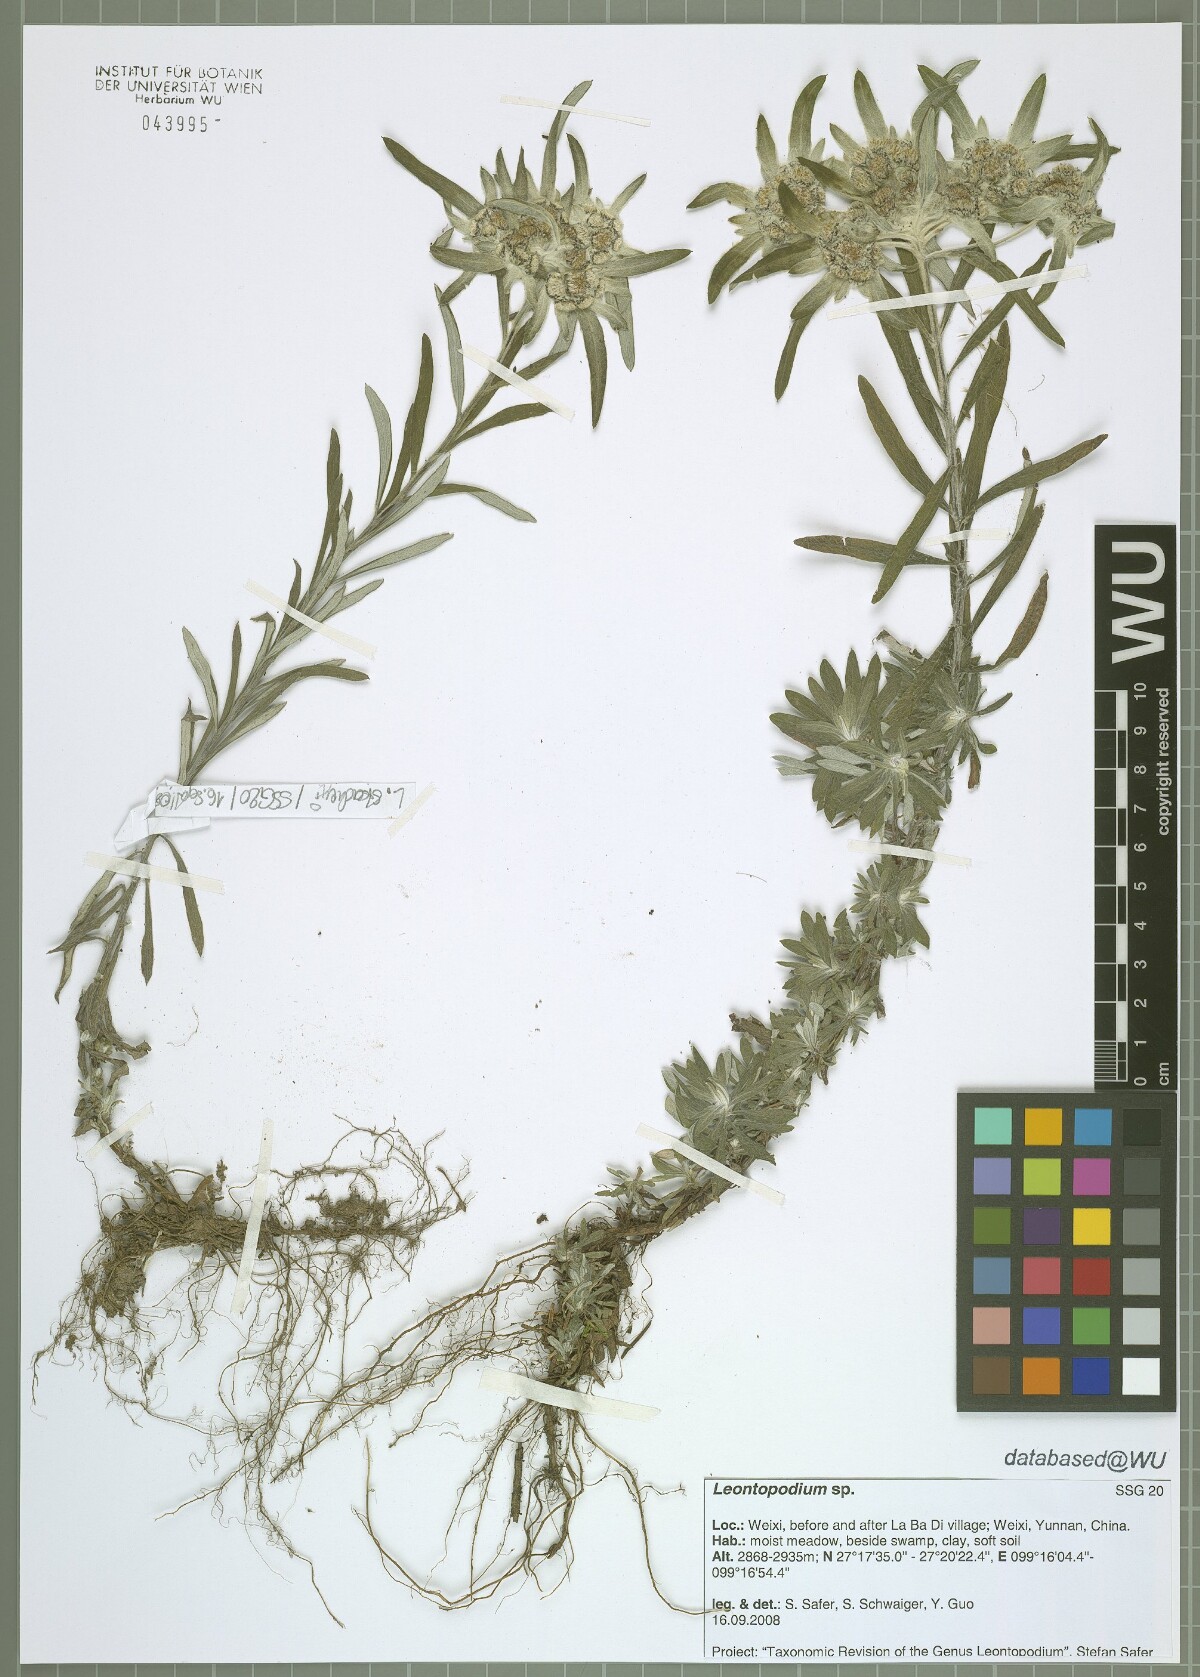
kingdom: Plantae
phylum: Tracheophyta
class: Magnoliopsida
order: Asterales
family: Asteraceae
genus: Leontopodium
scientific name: Leontopodium
